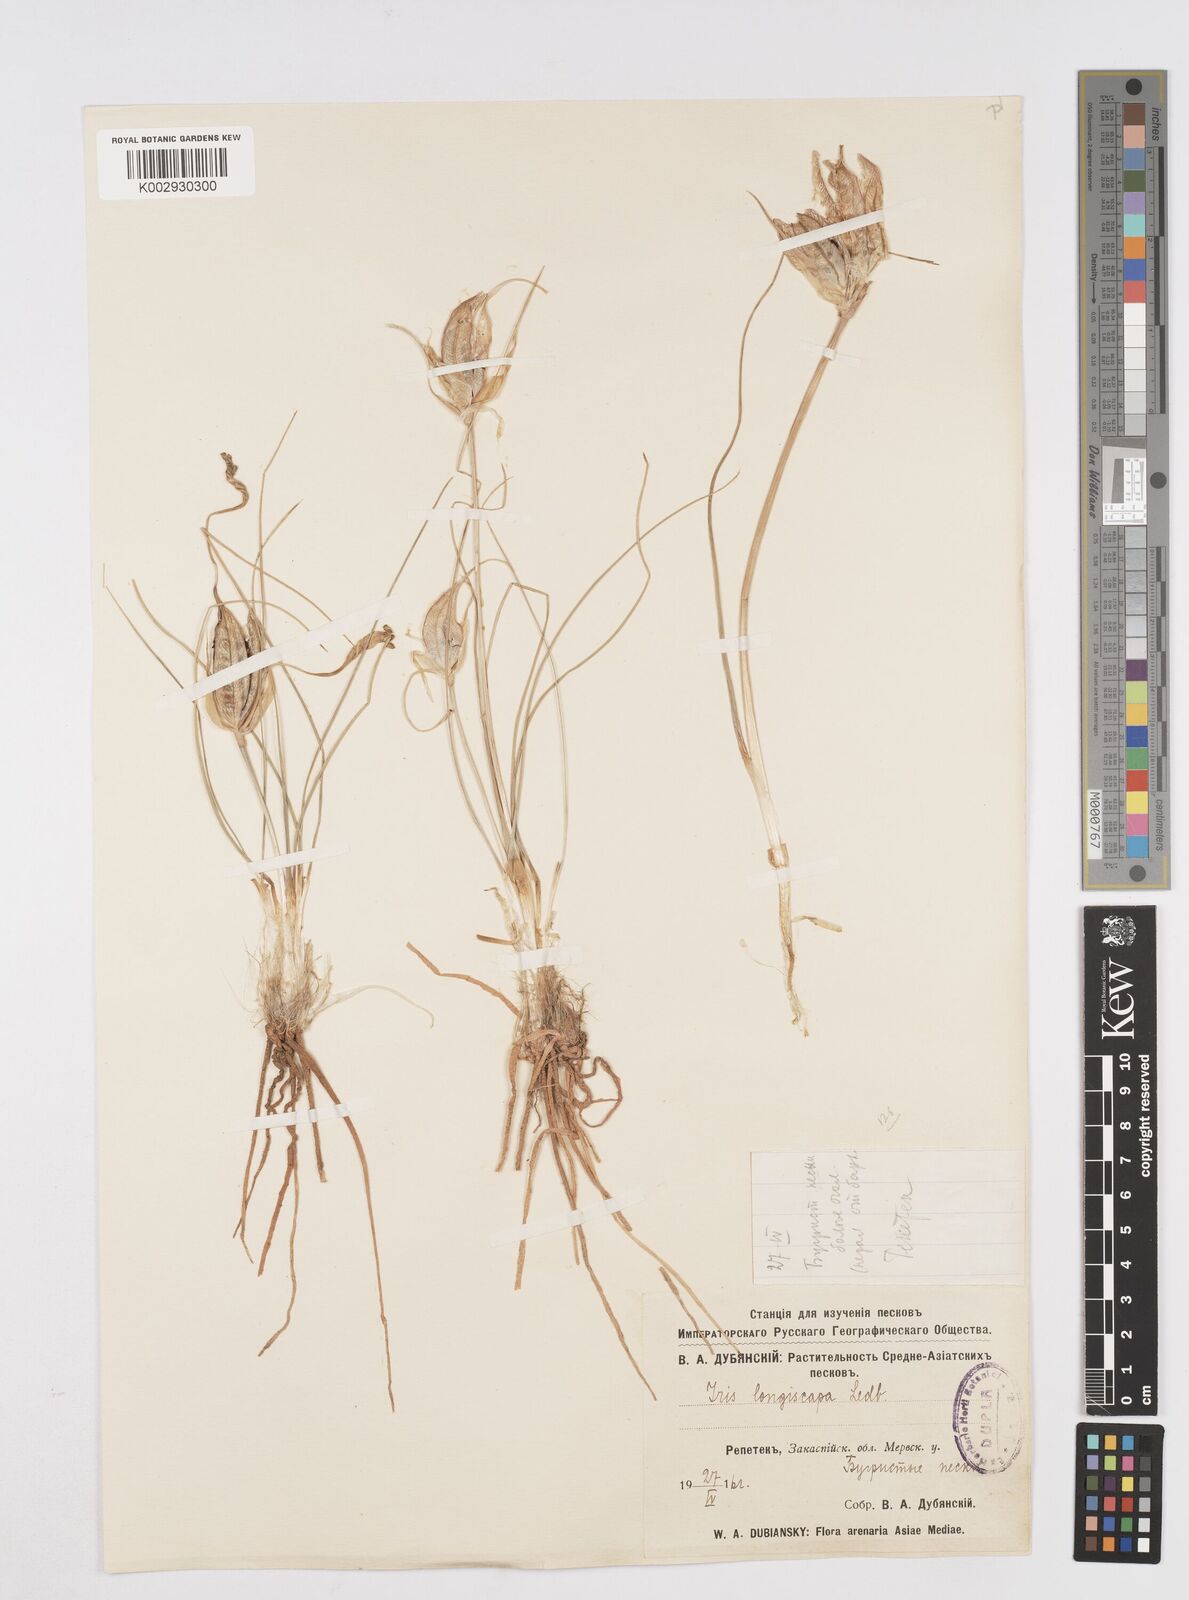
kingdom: Plantae
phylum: Tracheophyta
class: Liliopsida
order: Asparagales
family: Iridaceae
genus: Iris
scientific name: Iris longiscapa
